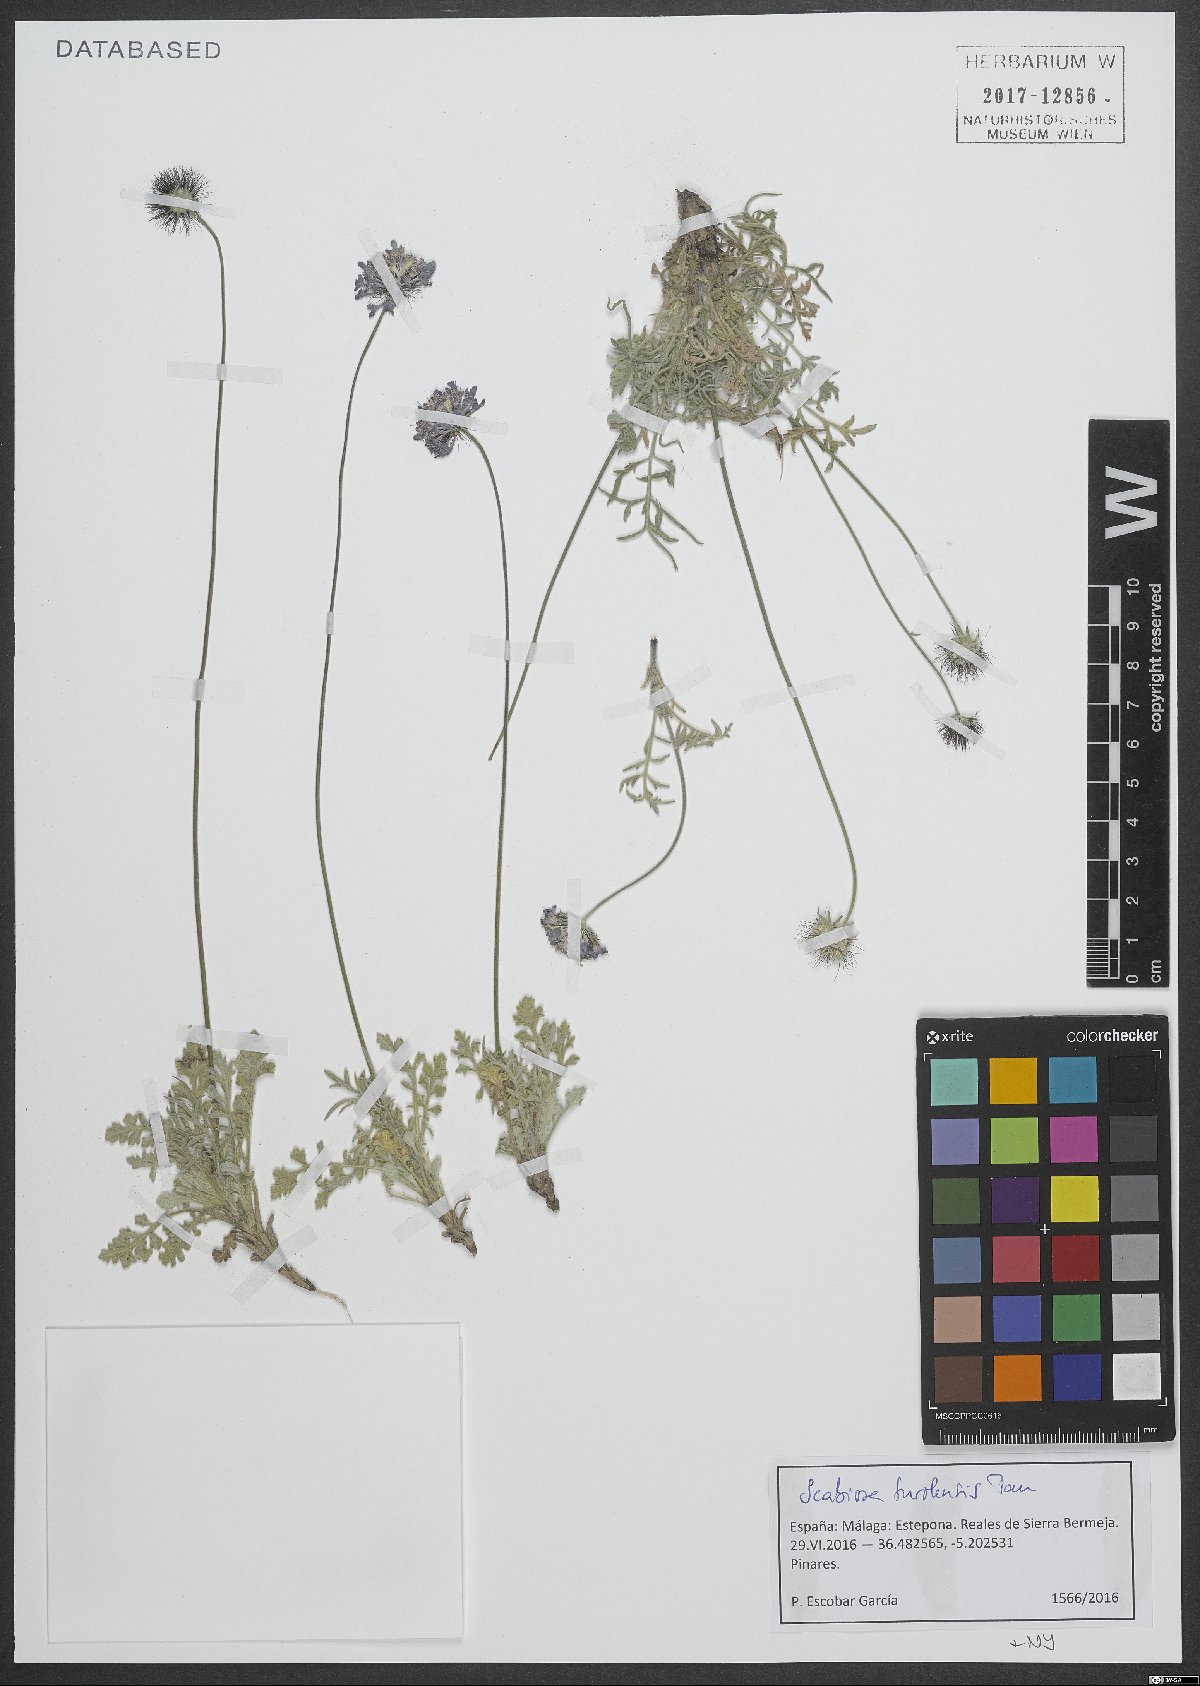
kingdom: Plantae
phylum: Tracheophyta
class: Magnoliopsida
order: Dipsacales
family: Caprifoliaceae
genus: Scabiosa
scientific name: Scabiosa turolensis
